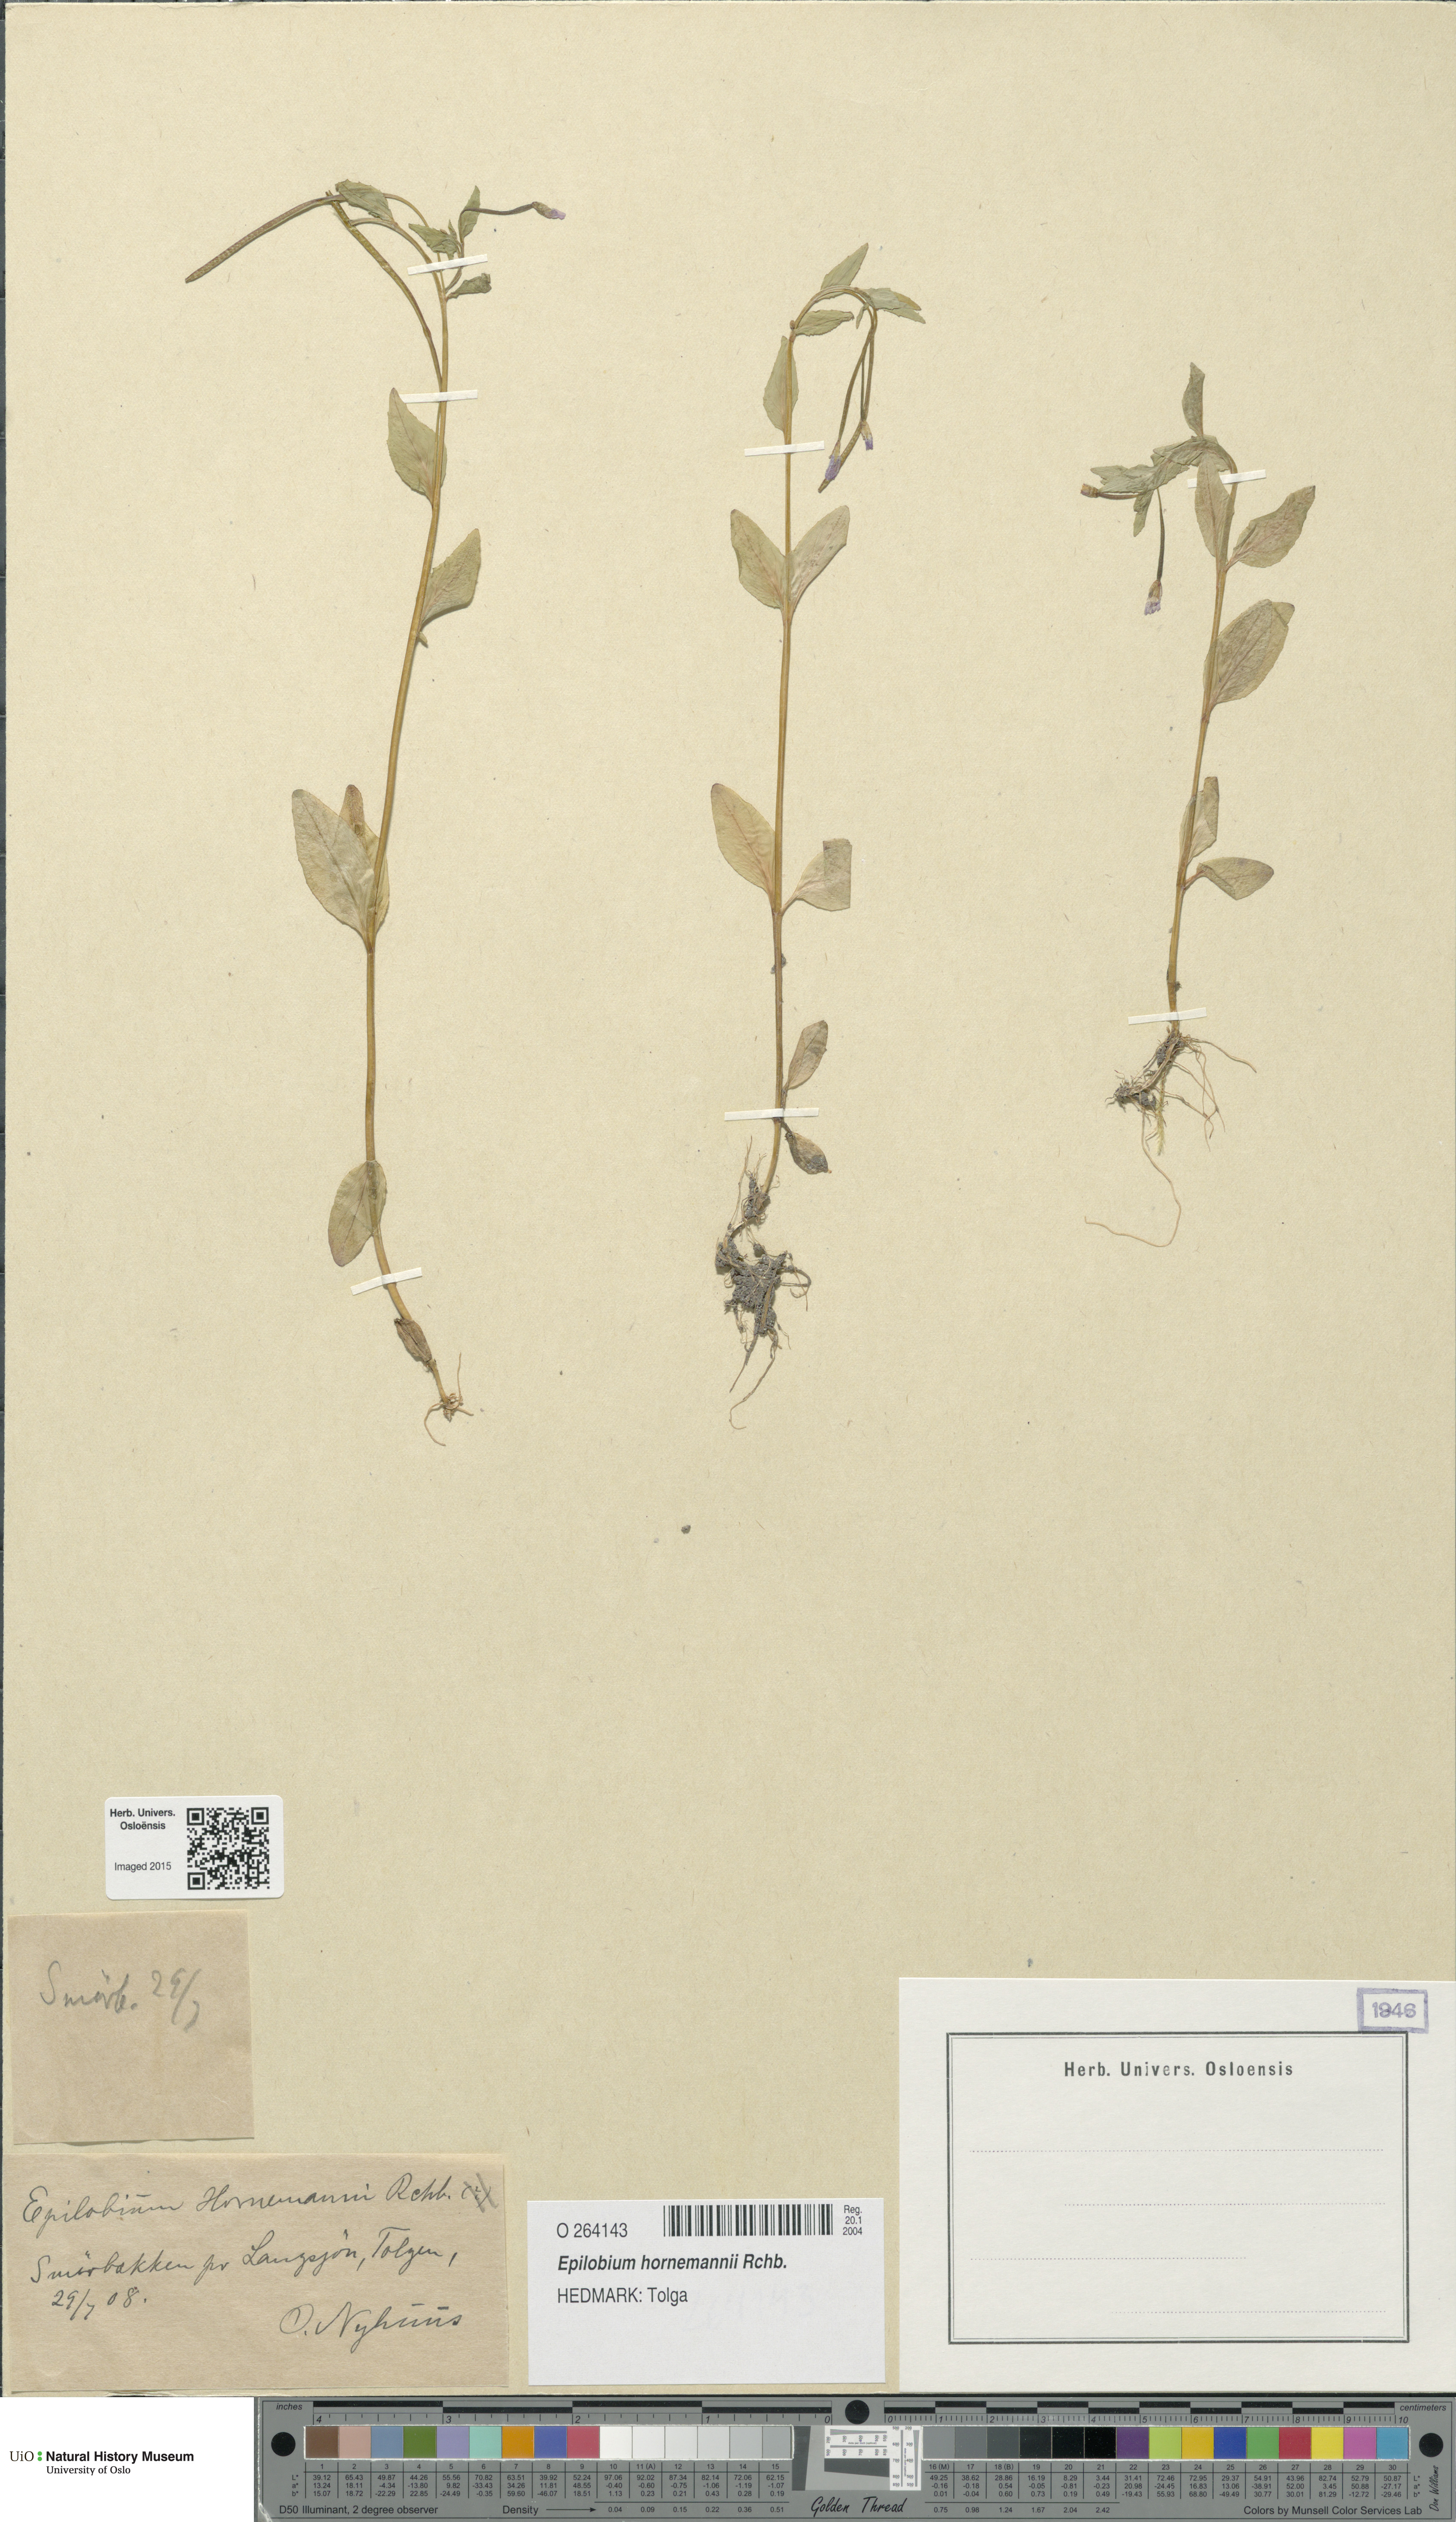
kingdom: Plantae
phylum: Tracheophyta
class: Magnoliopsida
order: Myrtales
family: Onagraceae
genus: Epilobium
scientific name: Epilobium hornemannii
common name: Hornemann's willowherb
